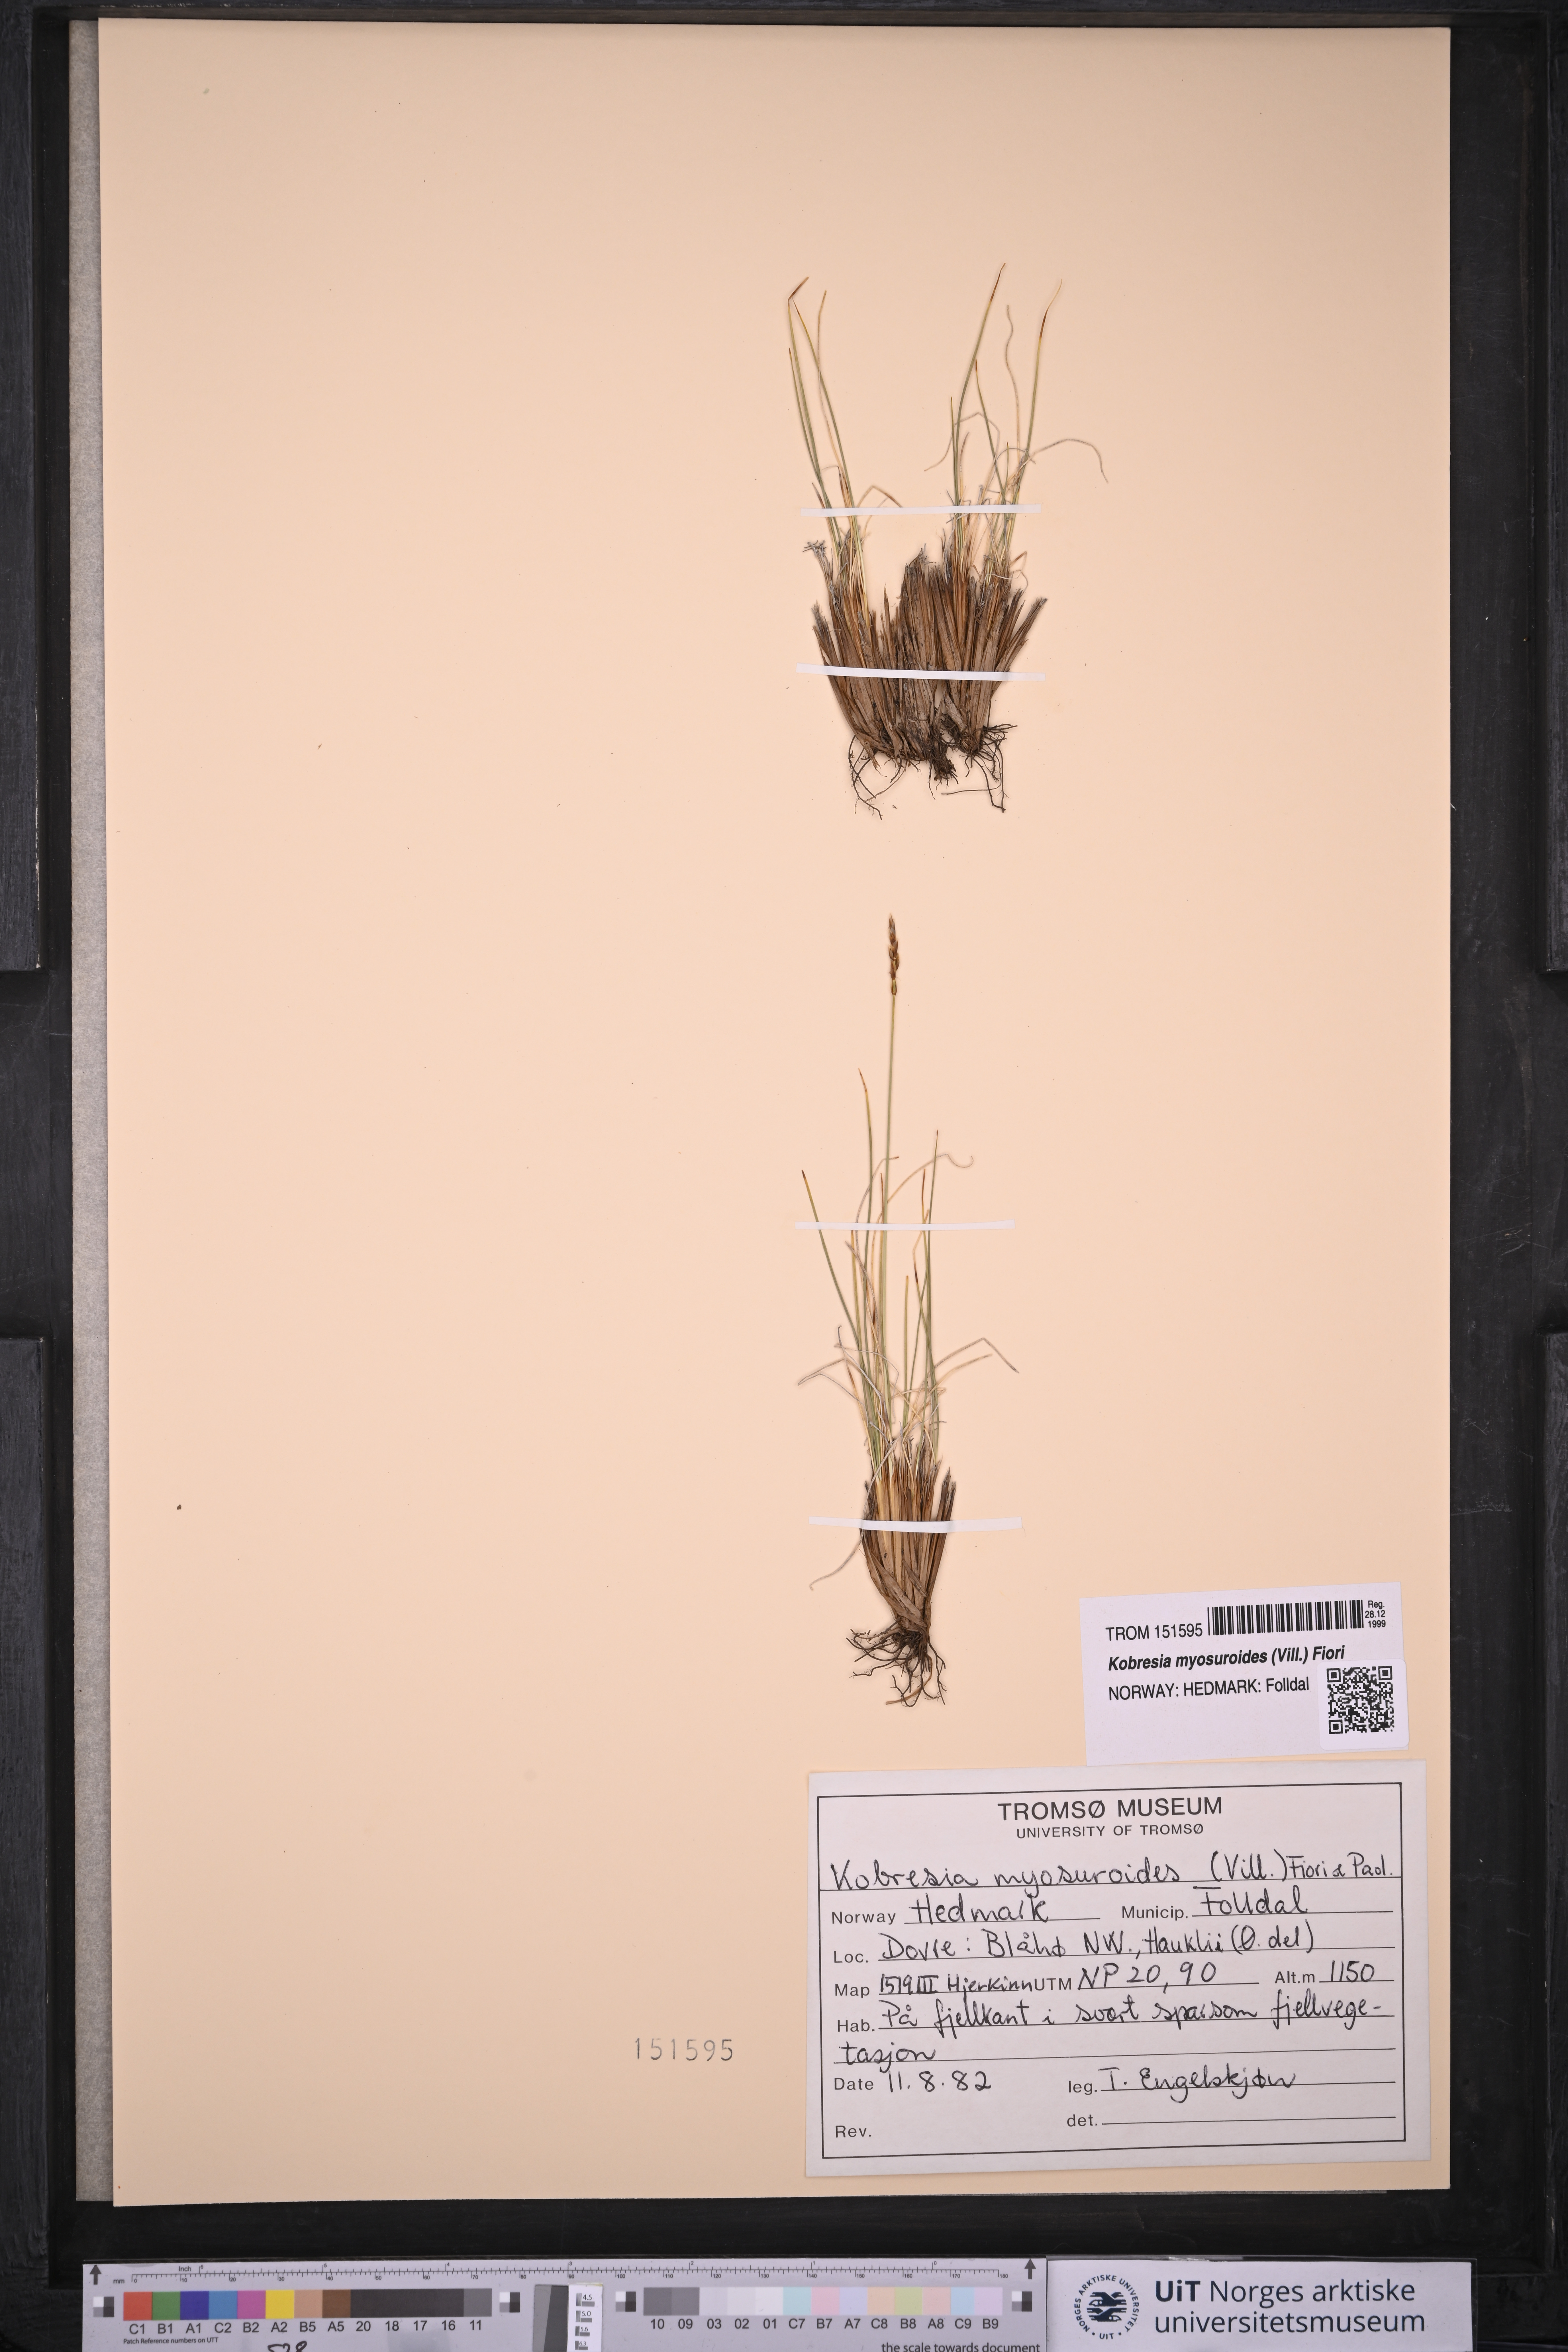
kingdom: Plantae
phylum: Tracheophyta
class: Liliopsida
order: Poales
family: Cyperaceae
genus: Carex
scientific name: Carex myosuroides
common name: Bellard's bog sedge
